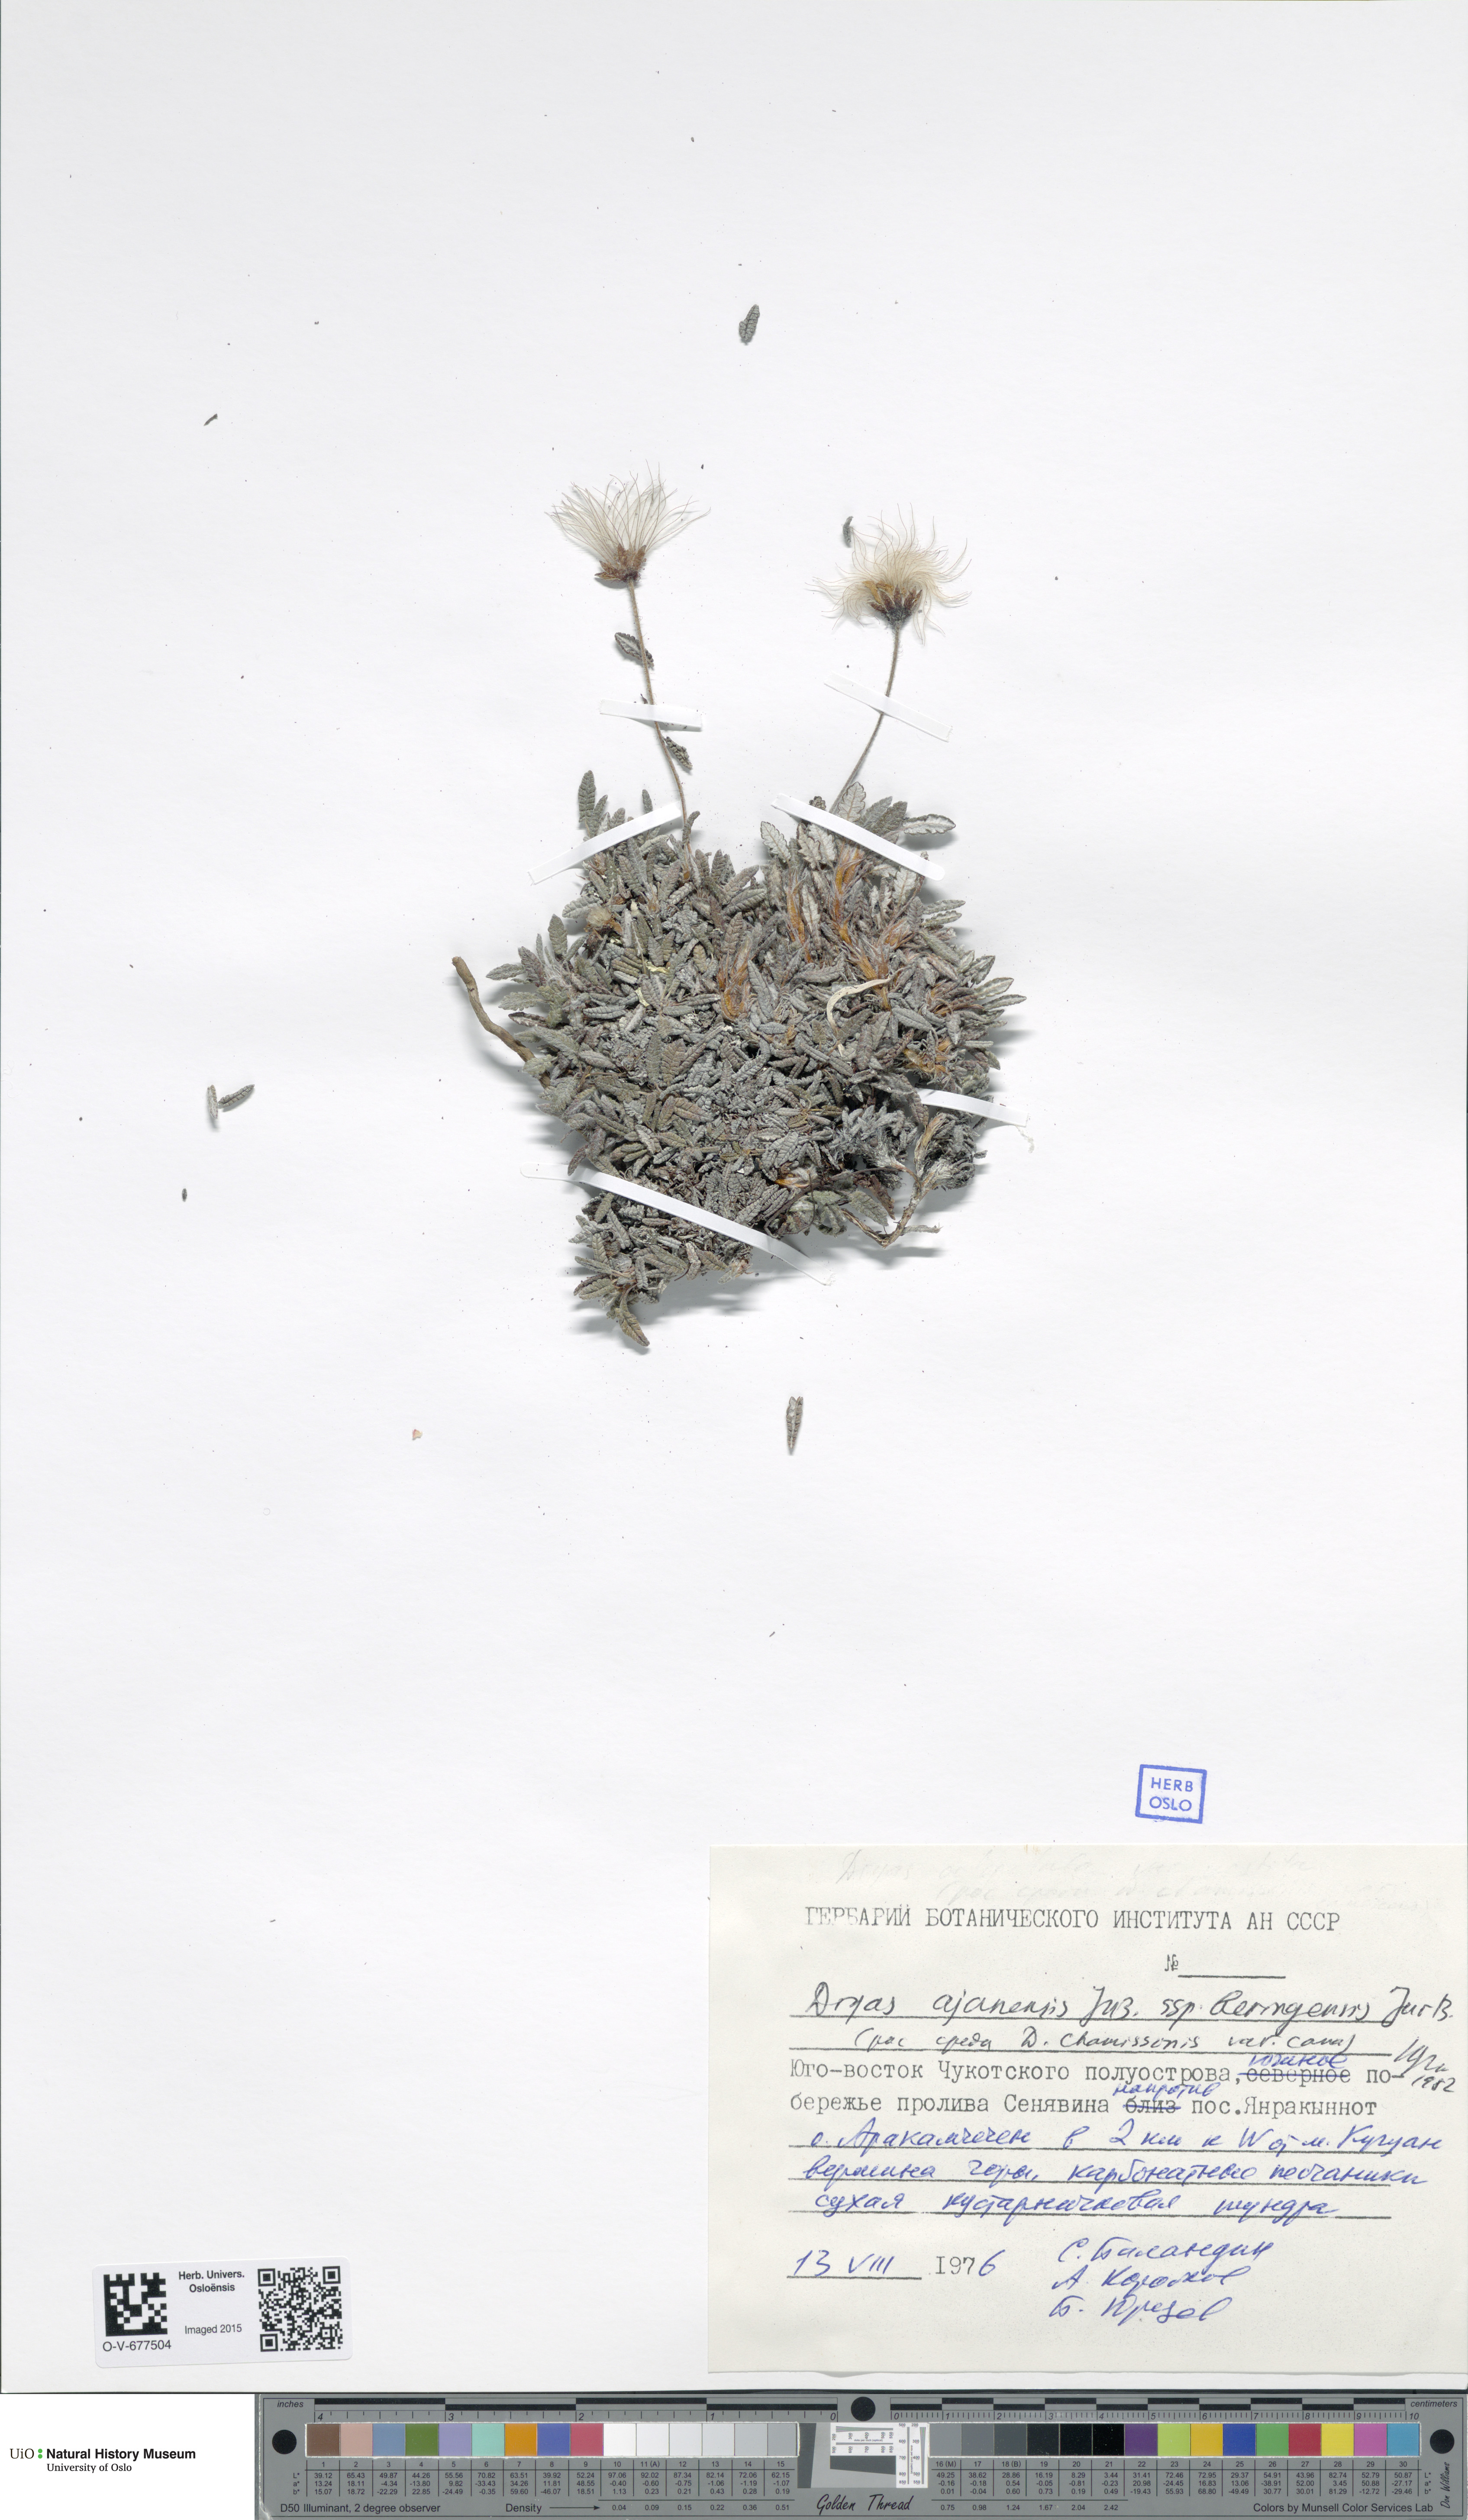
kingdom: Plantae
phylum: Tracheophyta
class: Magnoliopsida
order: Rosales
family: Rosaceae
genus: Dryas
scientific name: Dryas octopetala
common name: Eight-petal mountain-avens
